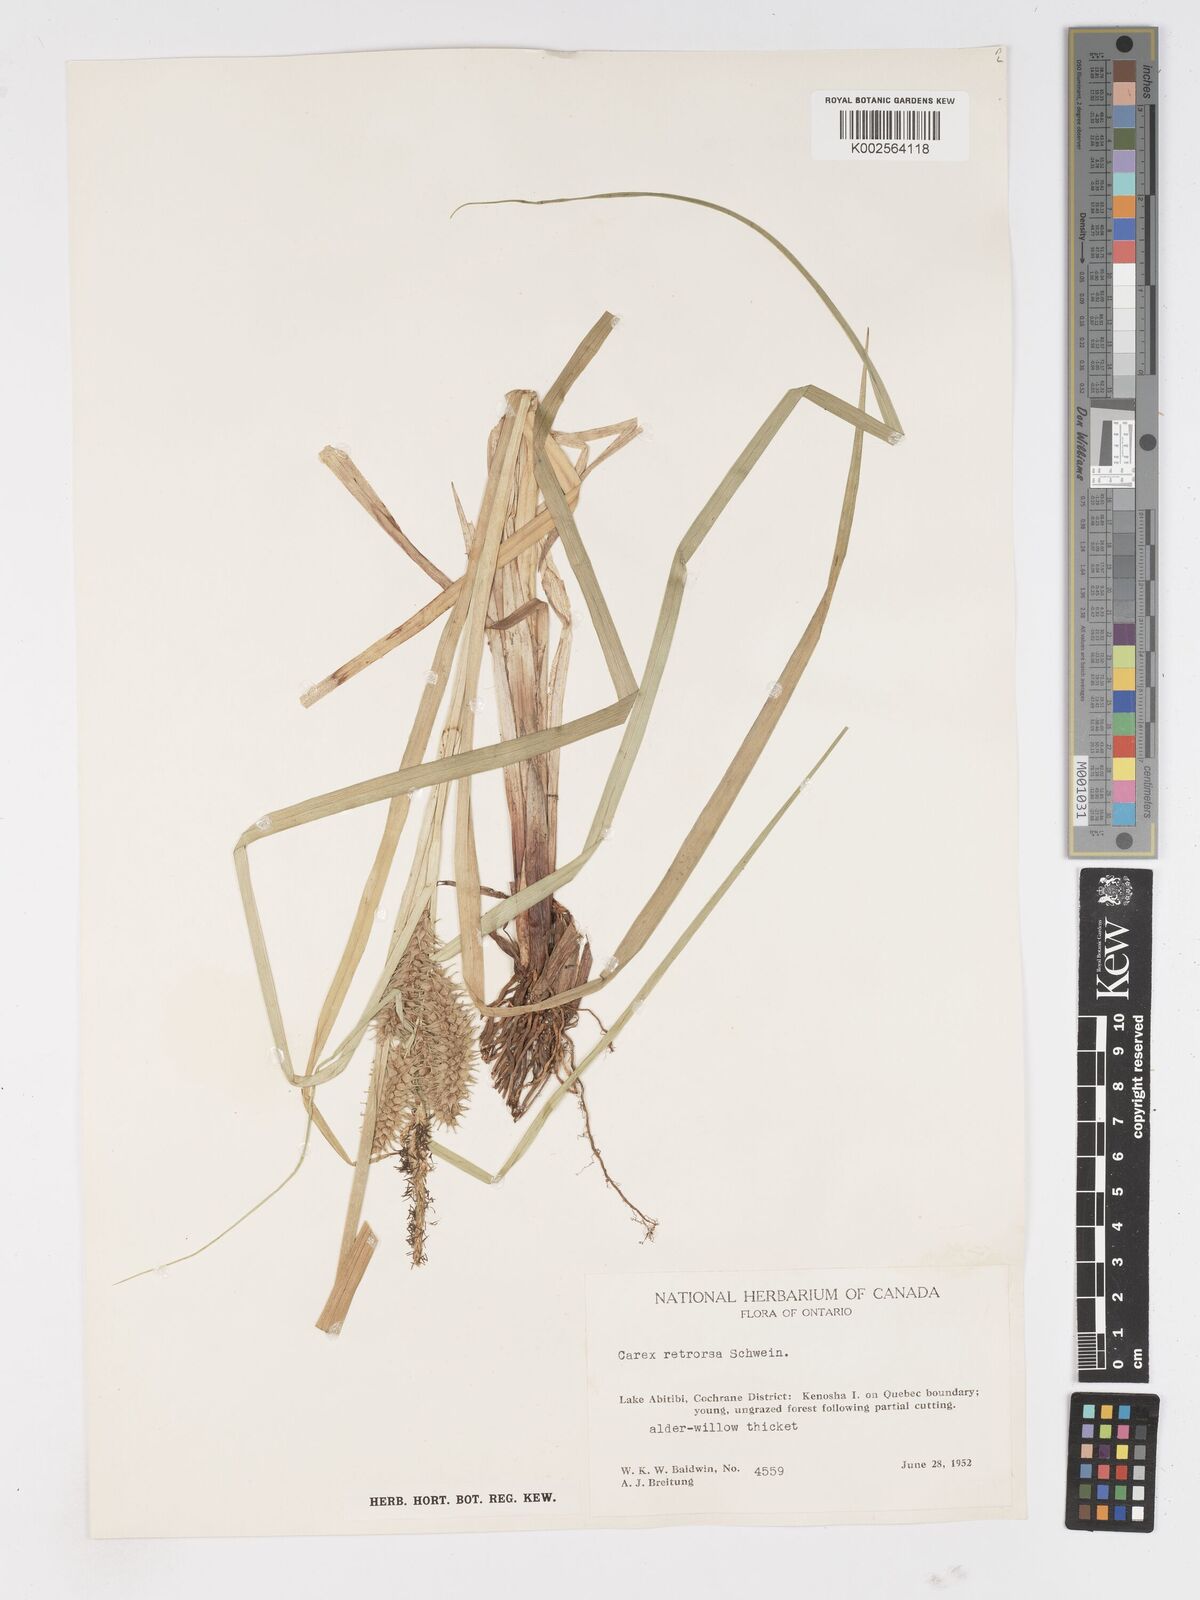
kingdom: Plantae
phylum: Tracheophyta
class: Liliopsida
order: Poales
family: Cyperaceae
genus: Carex
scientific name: Carex retrorsa
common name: Knot-sheath sedge
